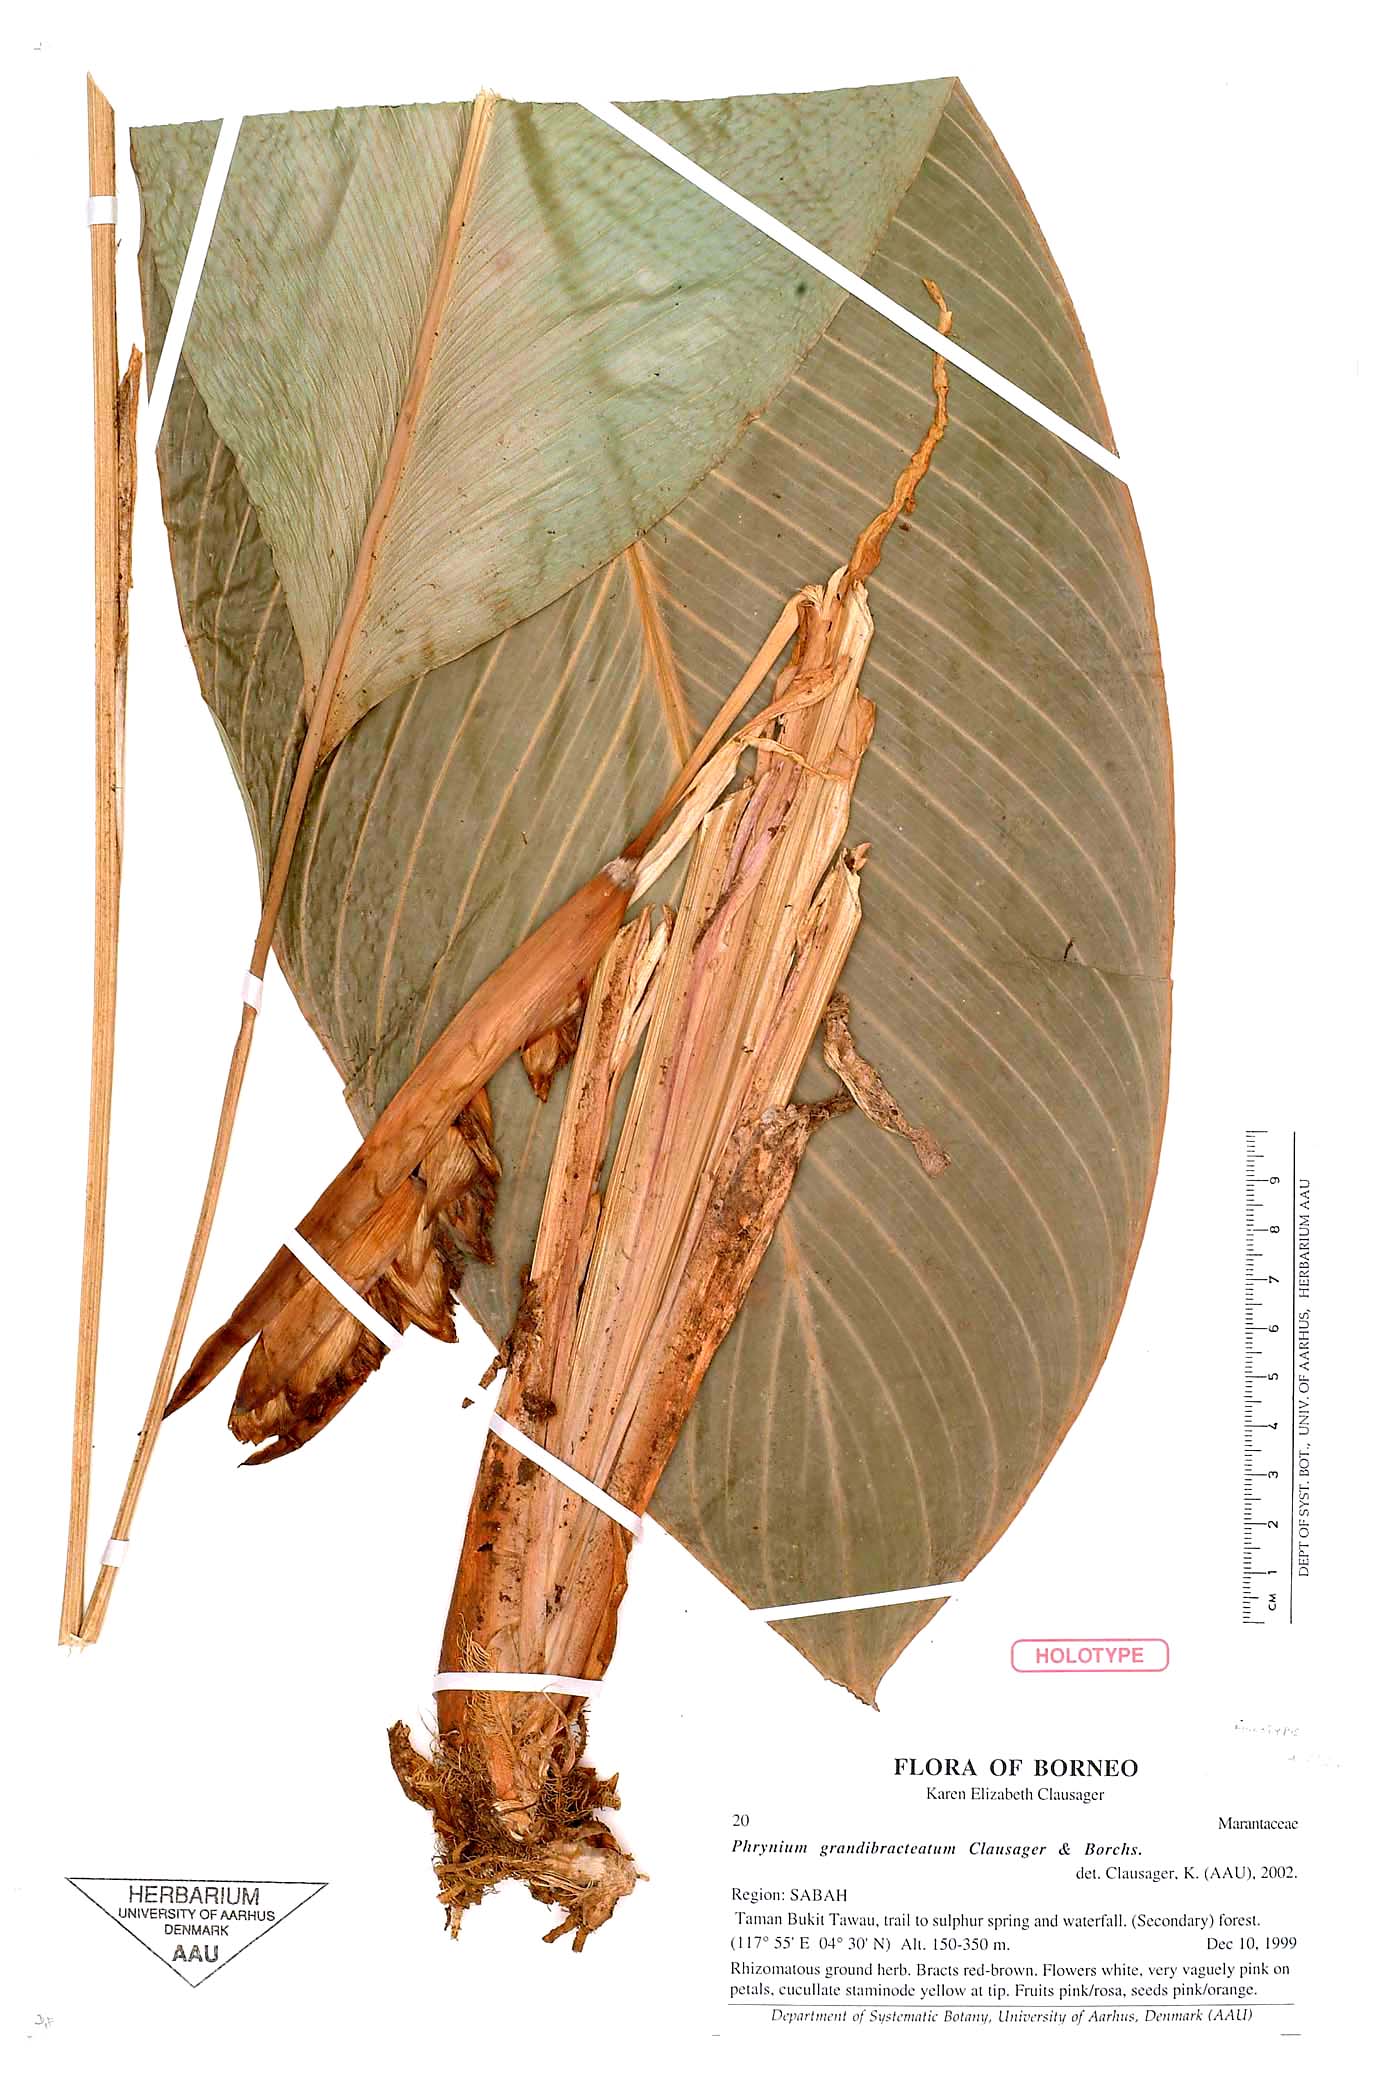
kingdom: Plantae
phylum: Tracheophyta
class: Liliopsida
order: Zingiberales
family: Marantaceae
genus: Phrynium
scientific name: Phrynium grandibracteatum
